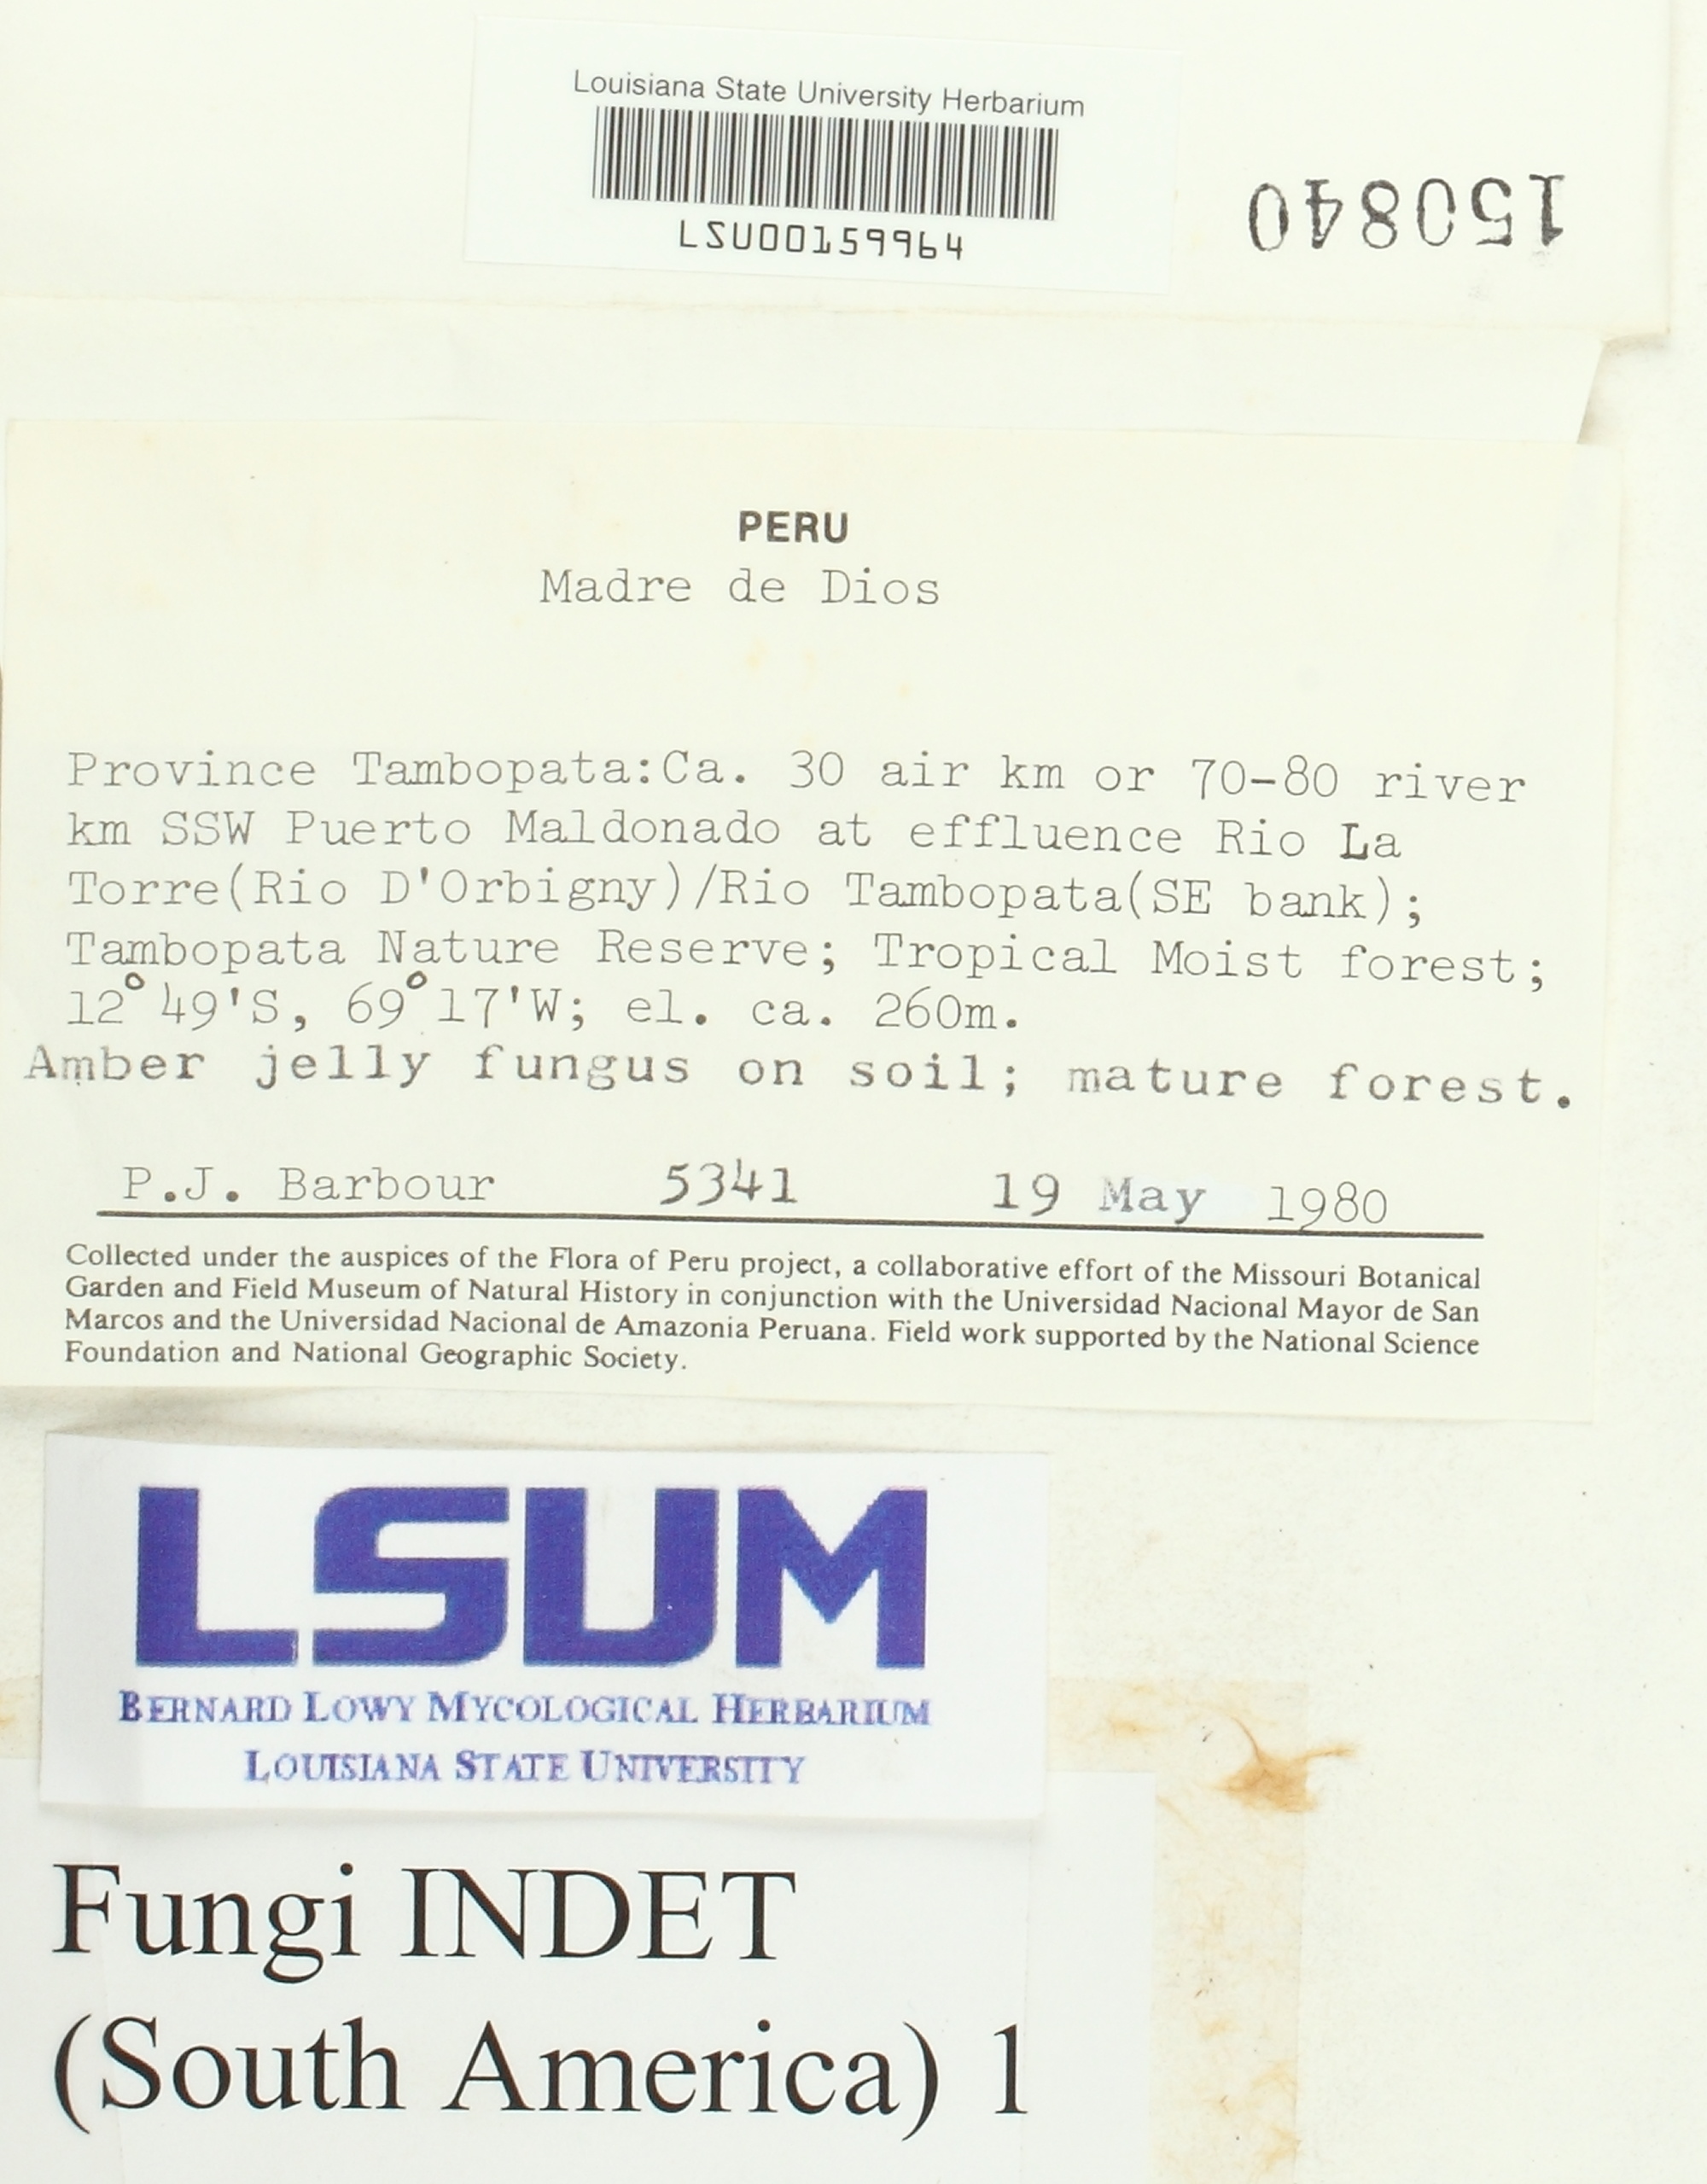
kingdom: Fungi
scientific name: Fungi
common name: Fungi
